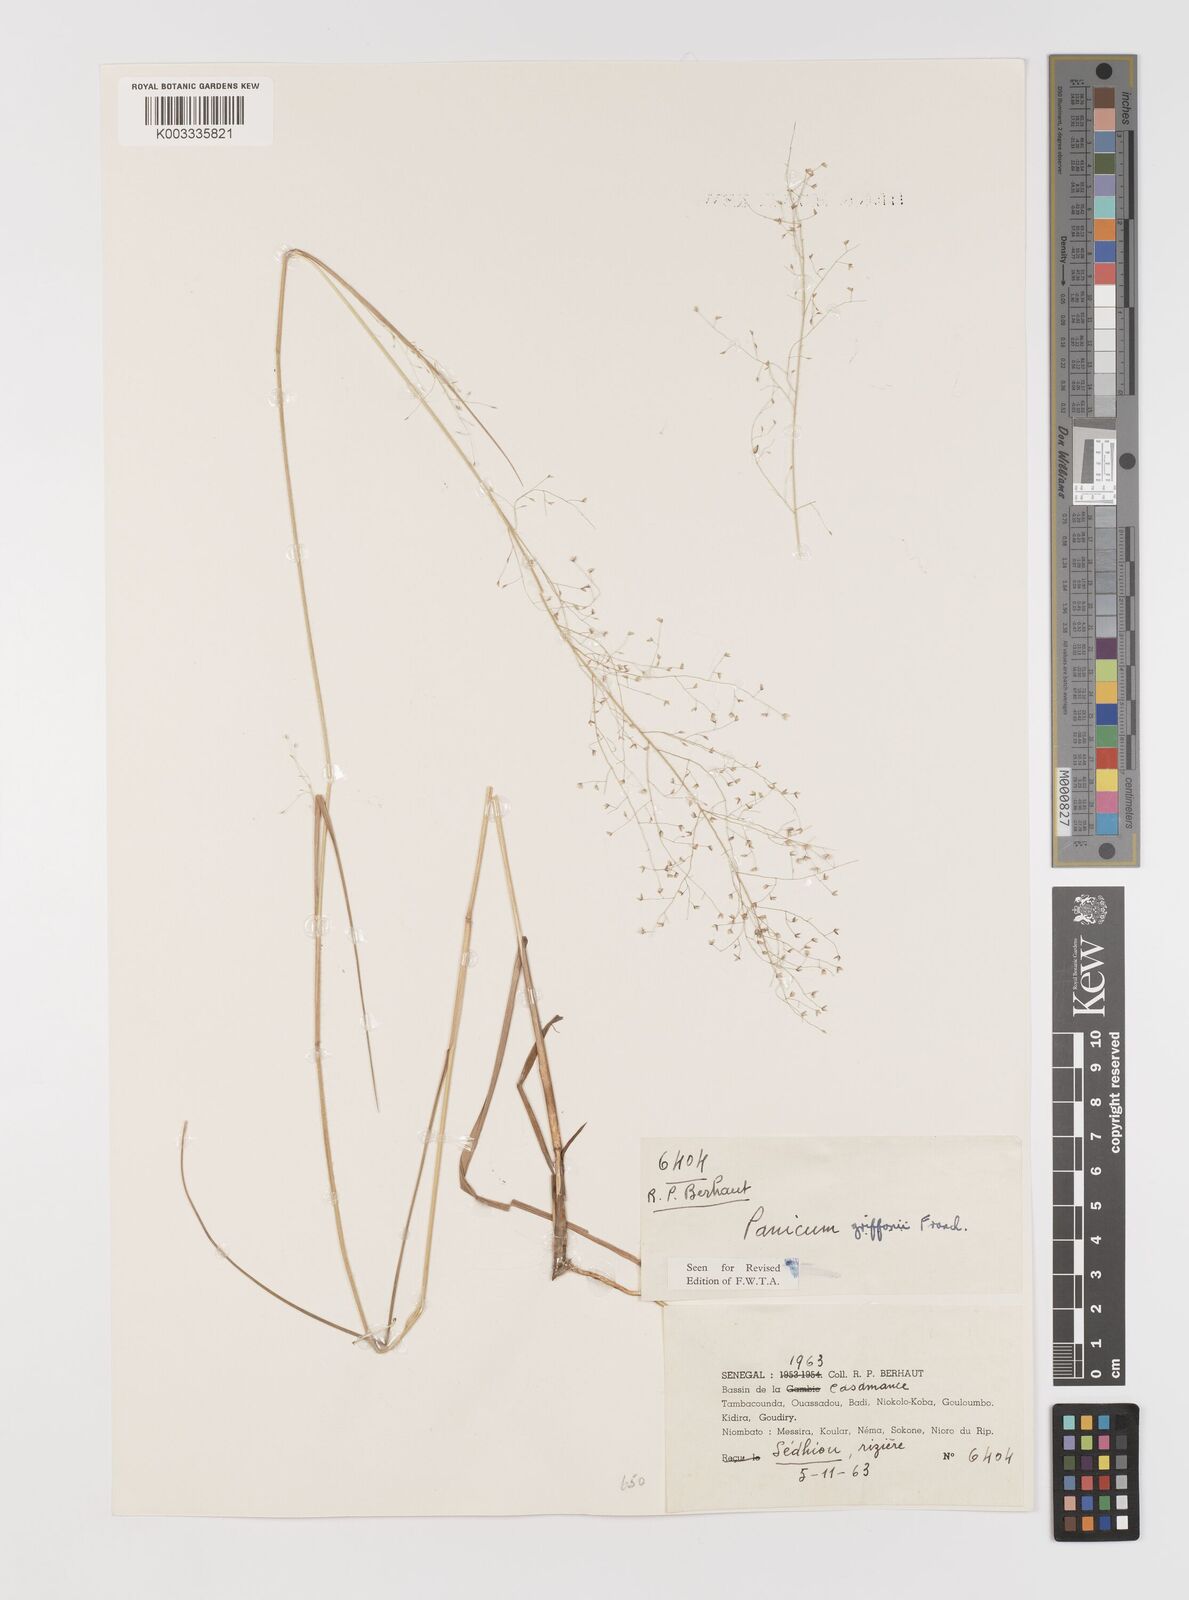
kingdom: Plantae
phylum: Tracheophyta
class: Liliopsida
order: Poales
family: Poaceae
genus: Panicum
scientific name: Panicum griffonii
